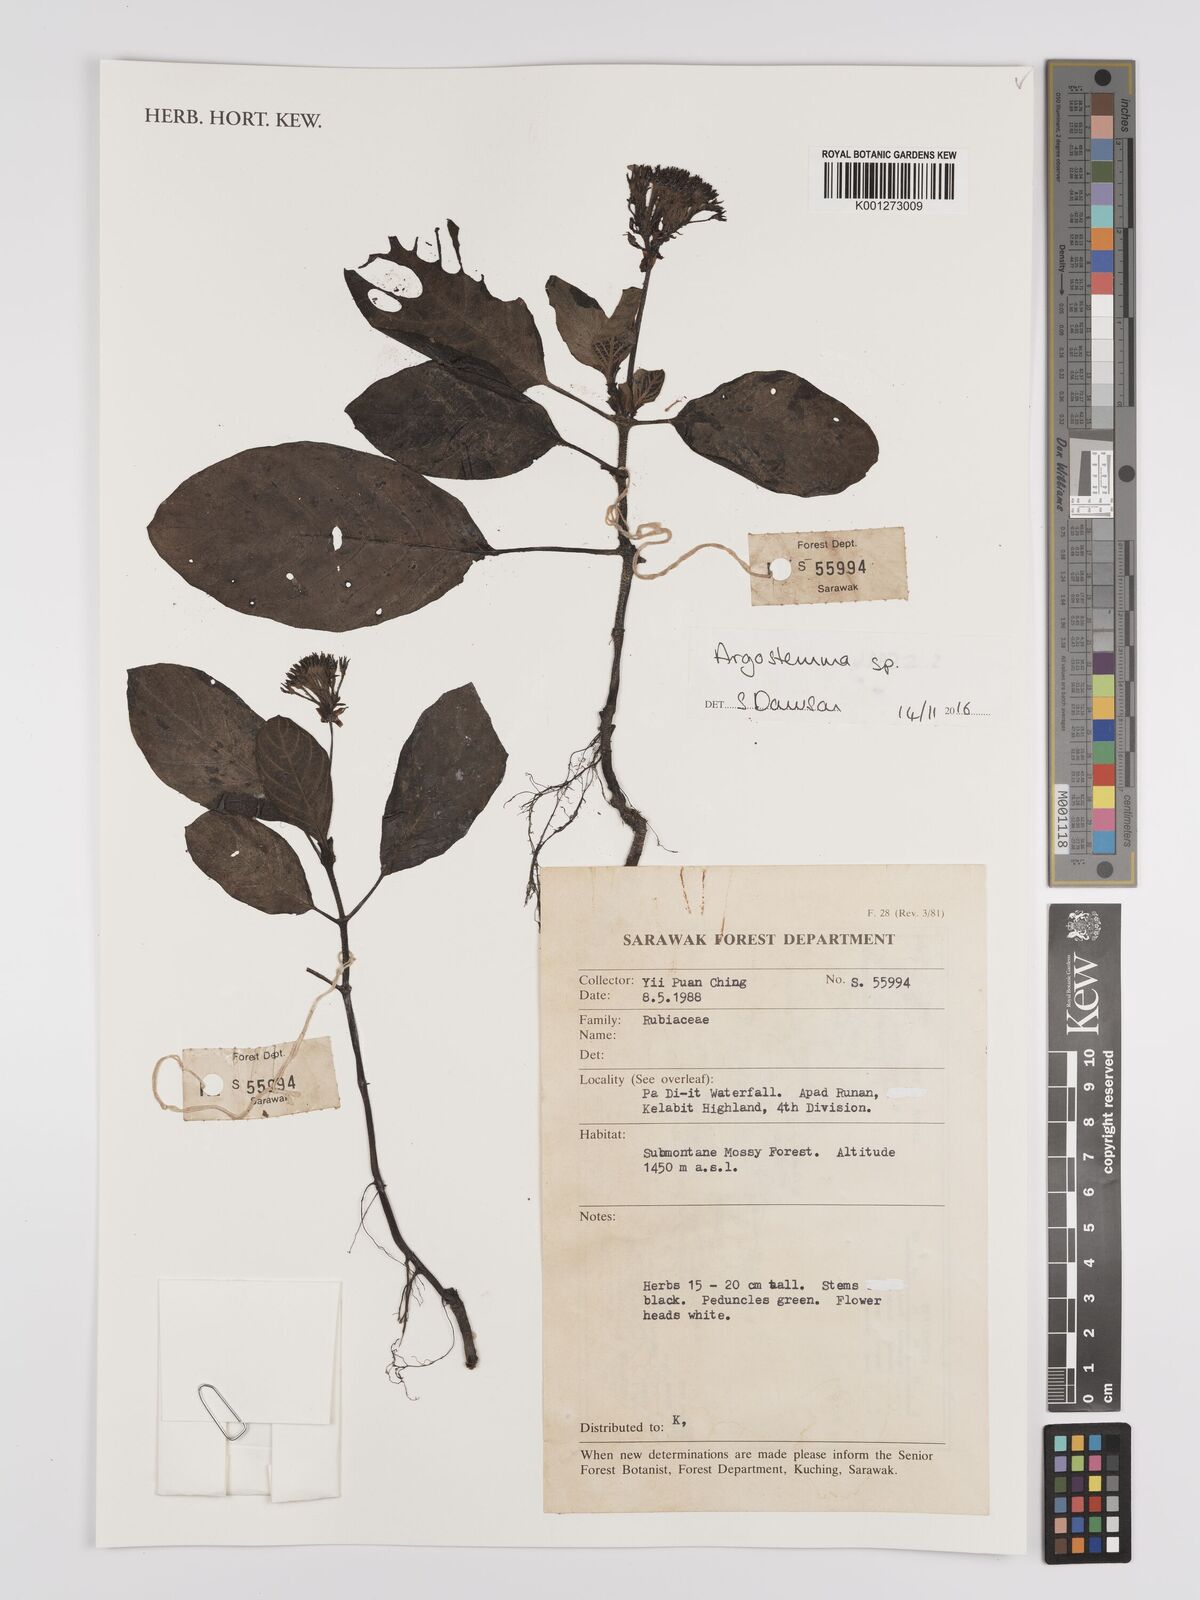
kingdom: Plantae
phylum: Tracheophyta
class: Magnoliopsida
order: Gentianales
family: Rubiaceae
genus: Argostemma
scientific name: Argostemma
